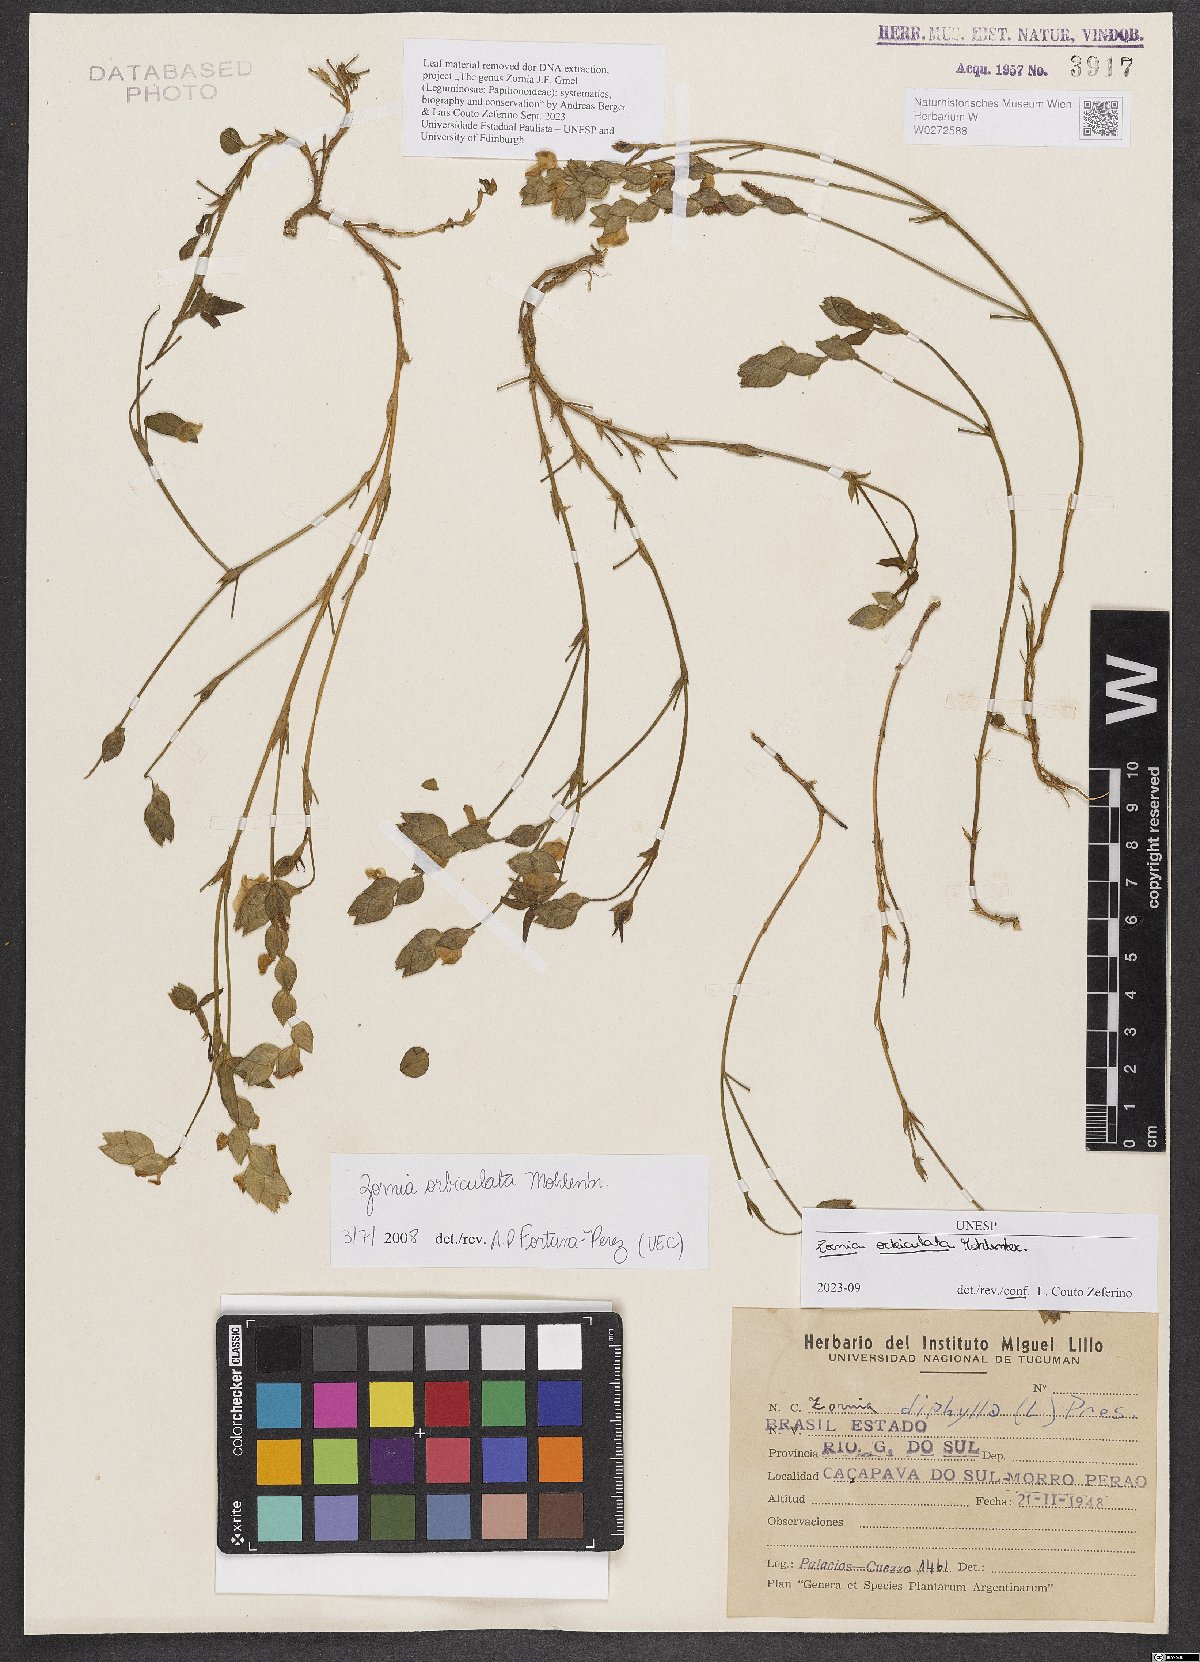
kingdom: Plantae
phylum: Tracheophyta
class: Magnoliopsida
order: Fabales
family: Fabaceae
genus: Zornia
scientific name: Zornia orbiculata
